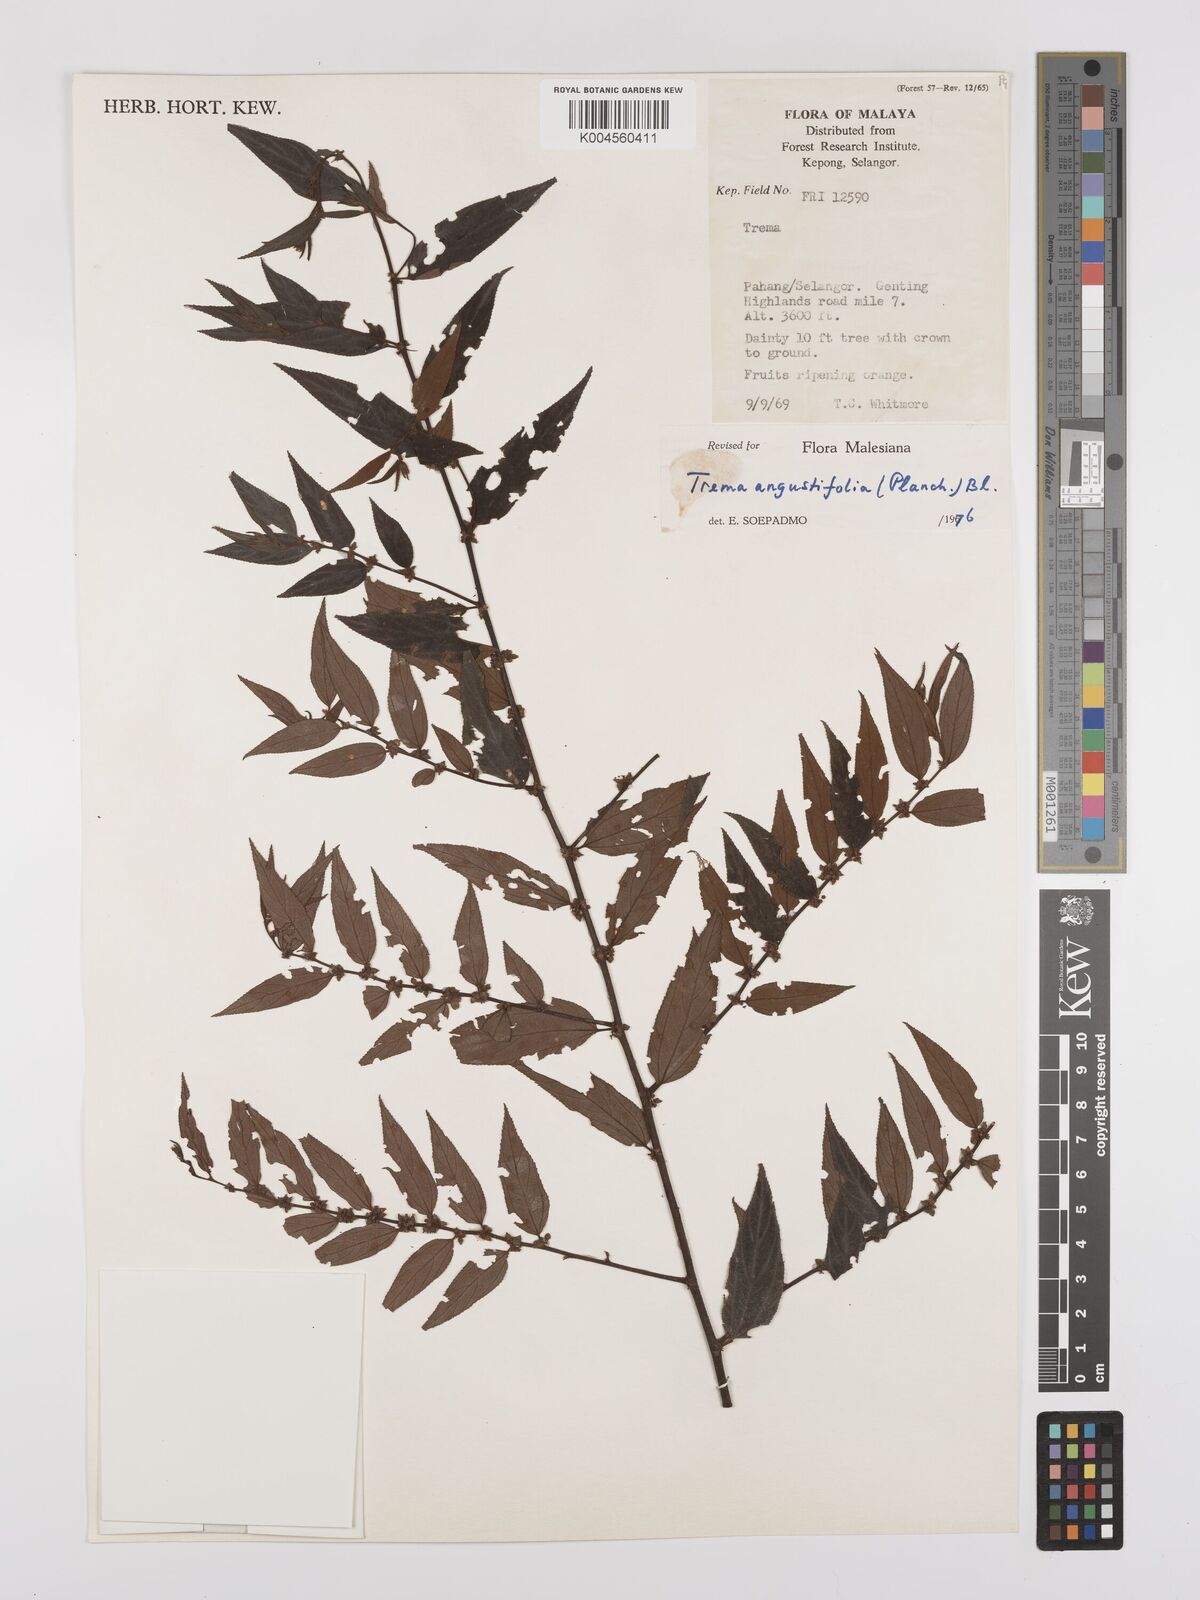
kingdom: Plantae
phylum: Tracheophyta
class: Magnoliopsida
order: Rosales
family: Cannabaceae
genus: Trema
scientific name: Trema angustifolium
